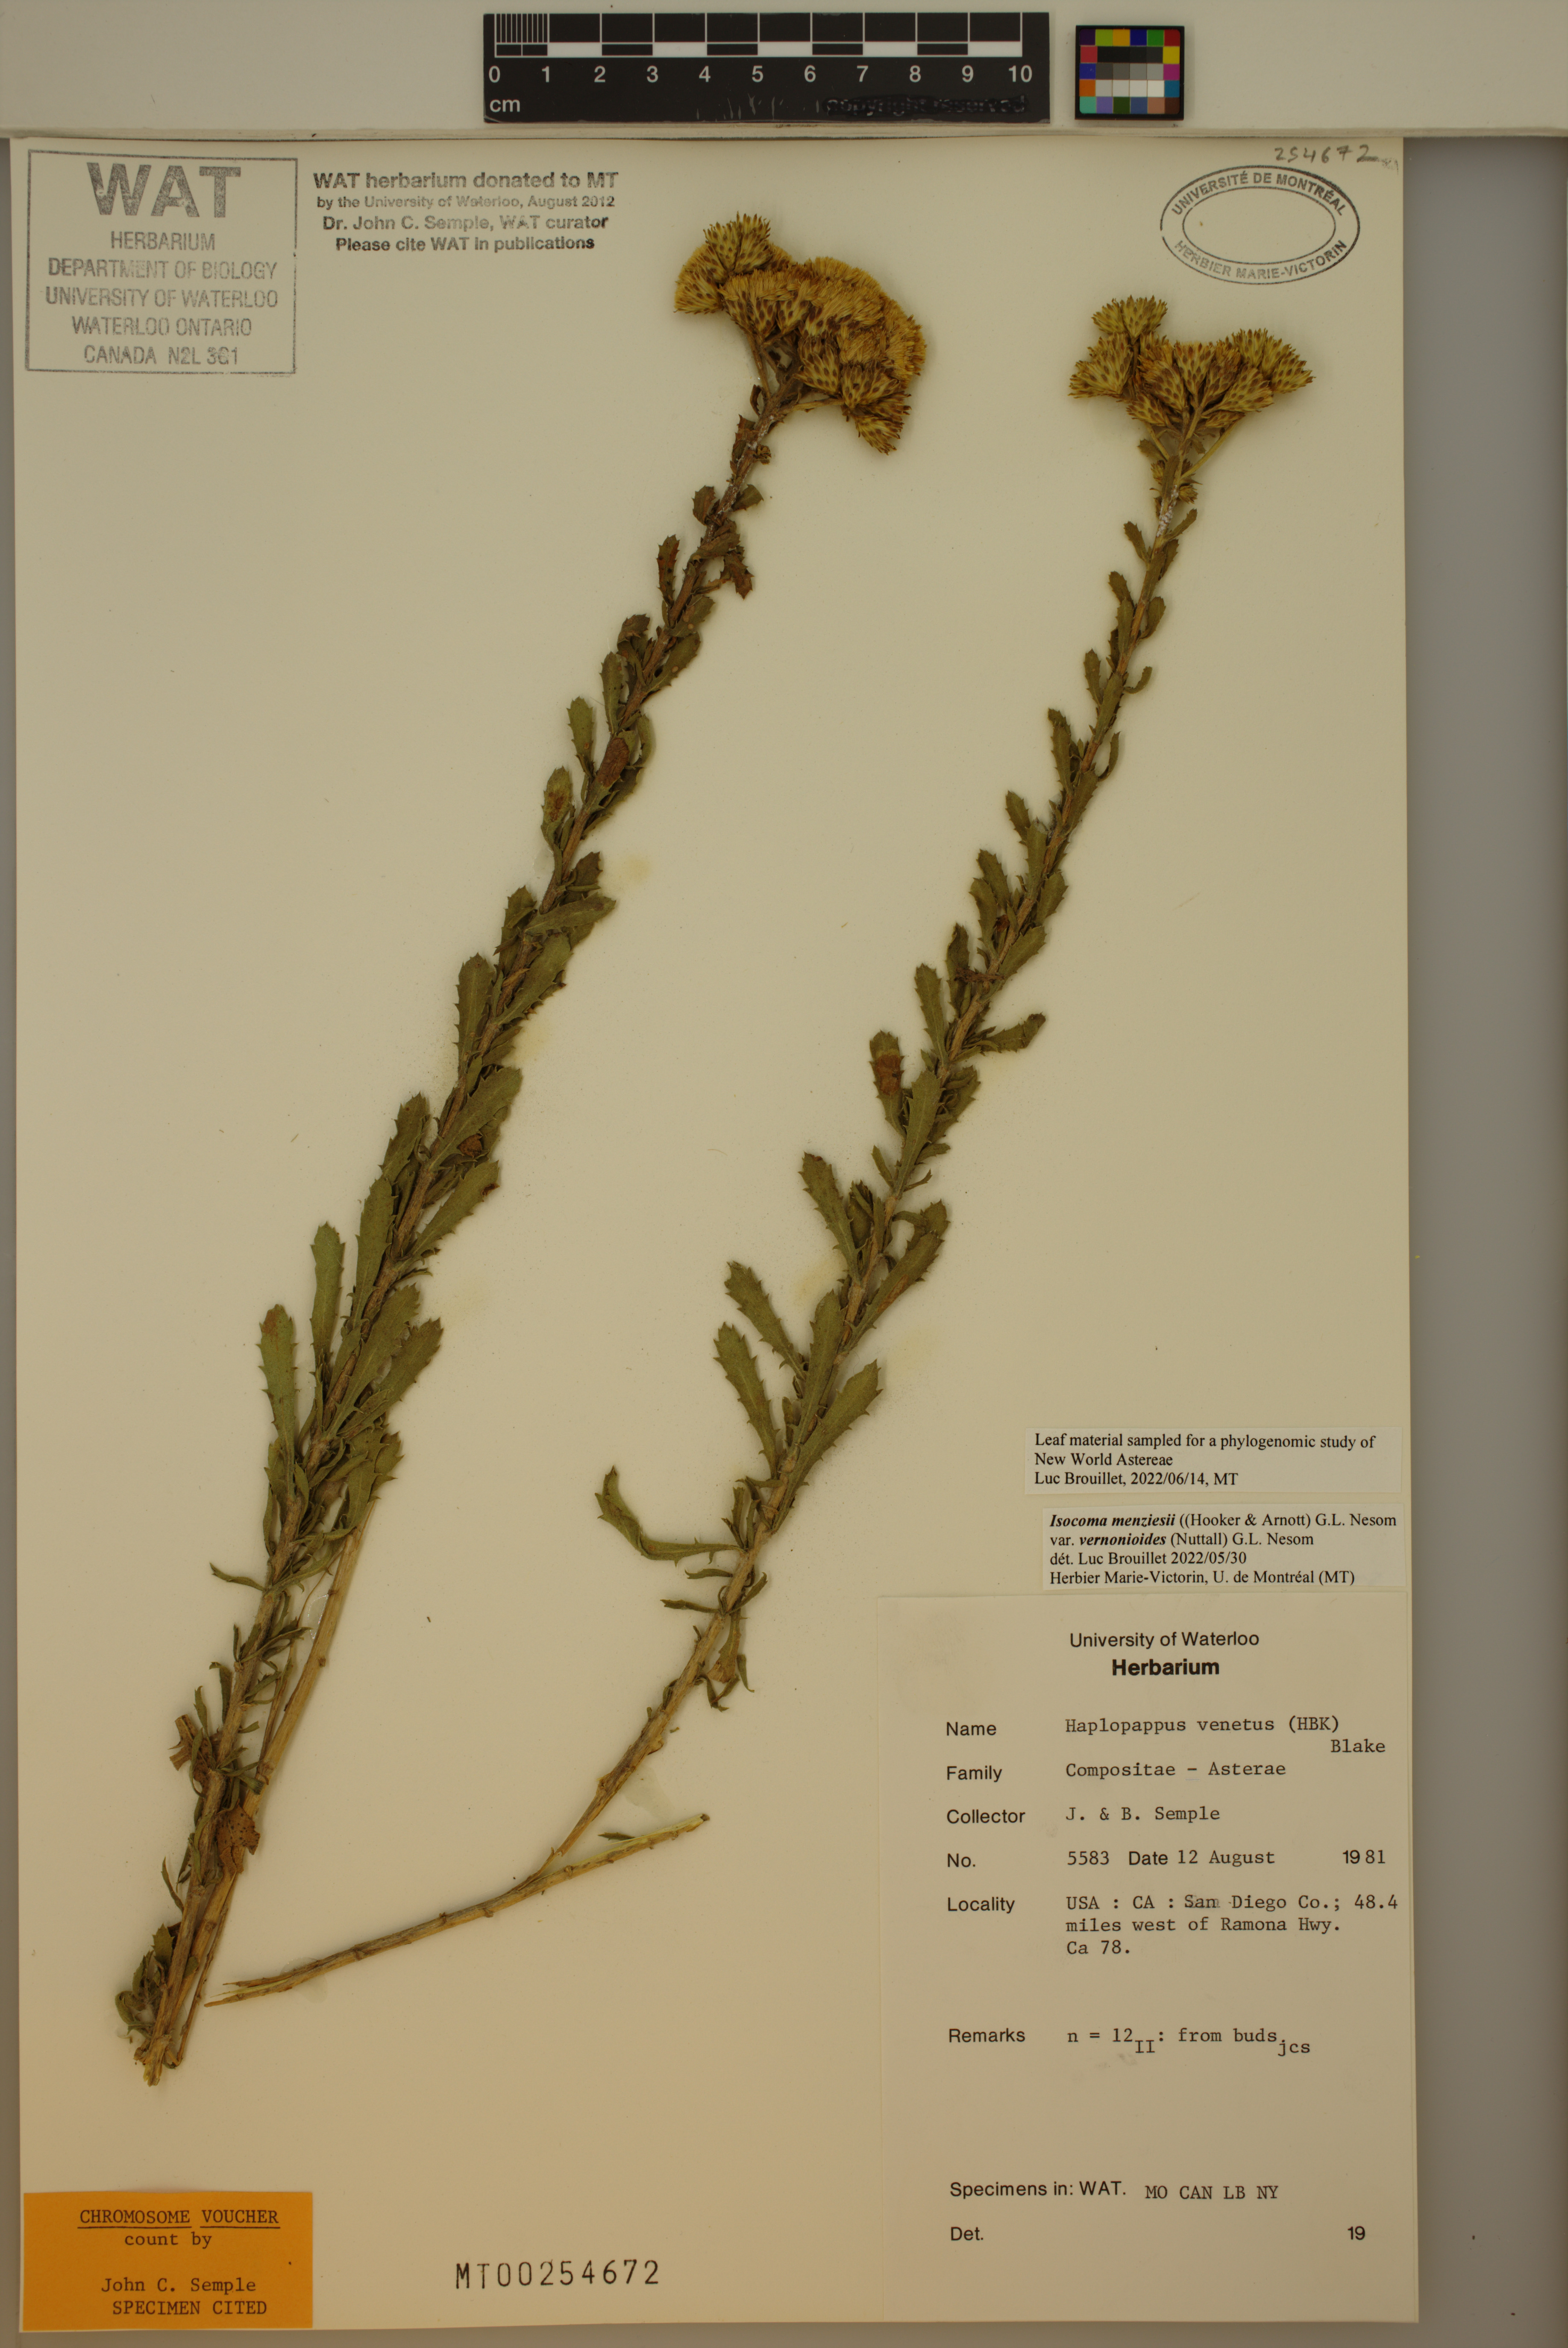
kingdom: Plantae
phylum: Tracheophyta
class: Magnoliopsida
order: Asterales
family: Asteraceae
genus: Isocoma
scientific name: Isocoma menziesii
